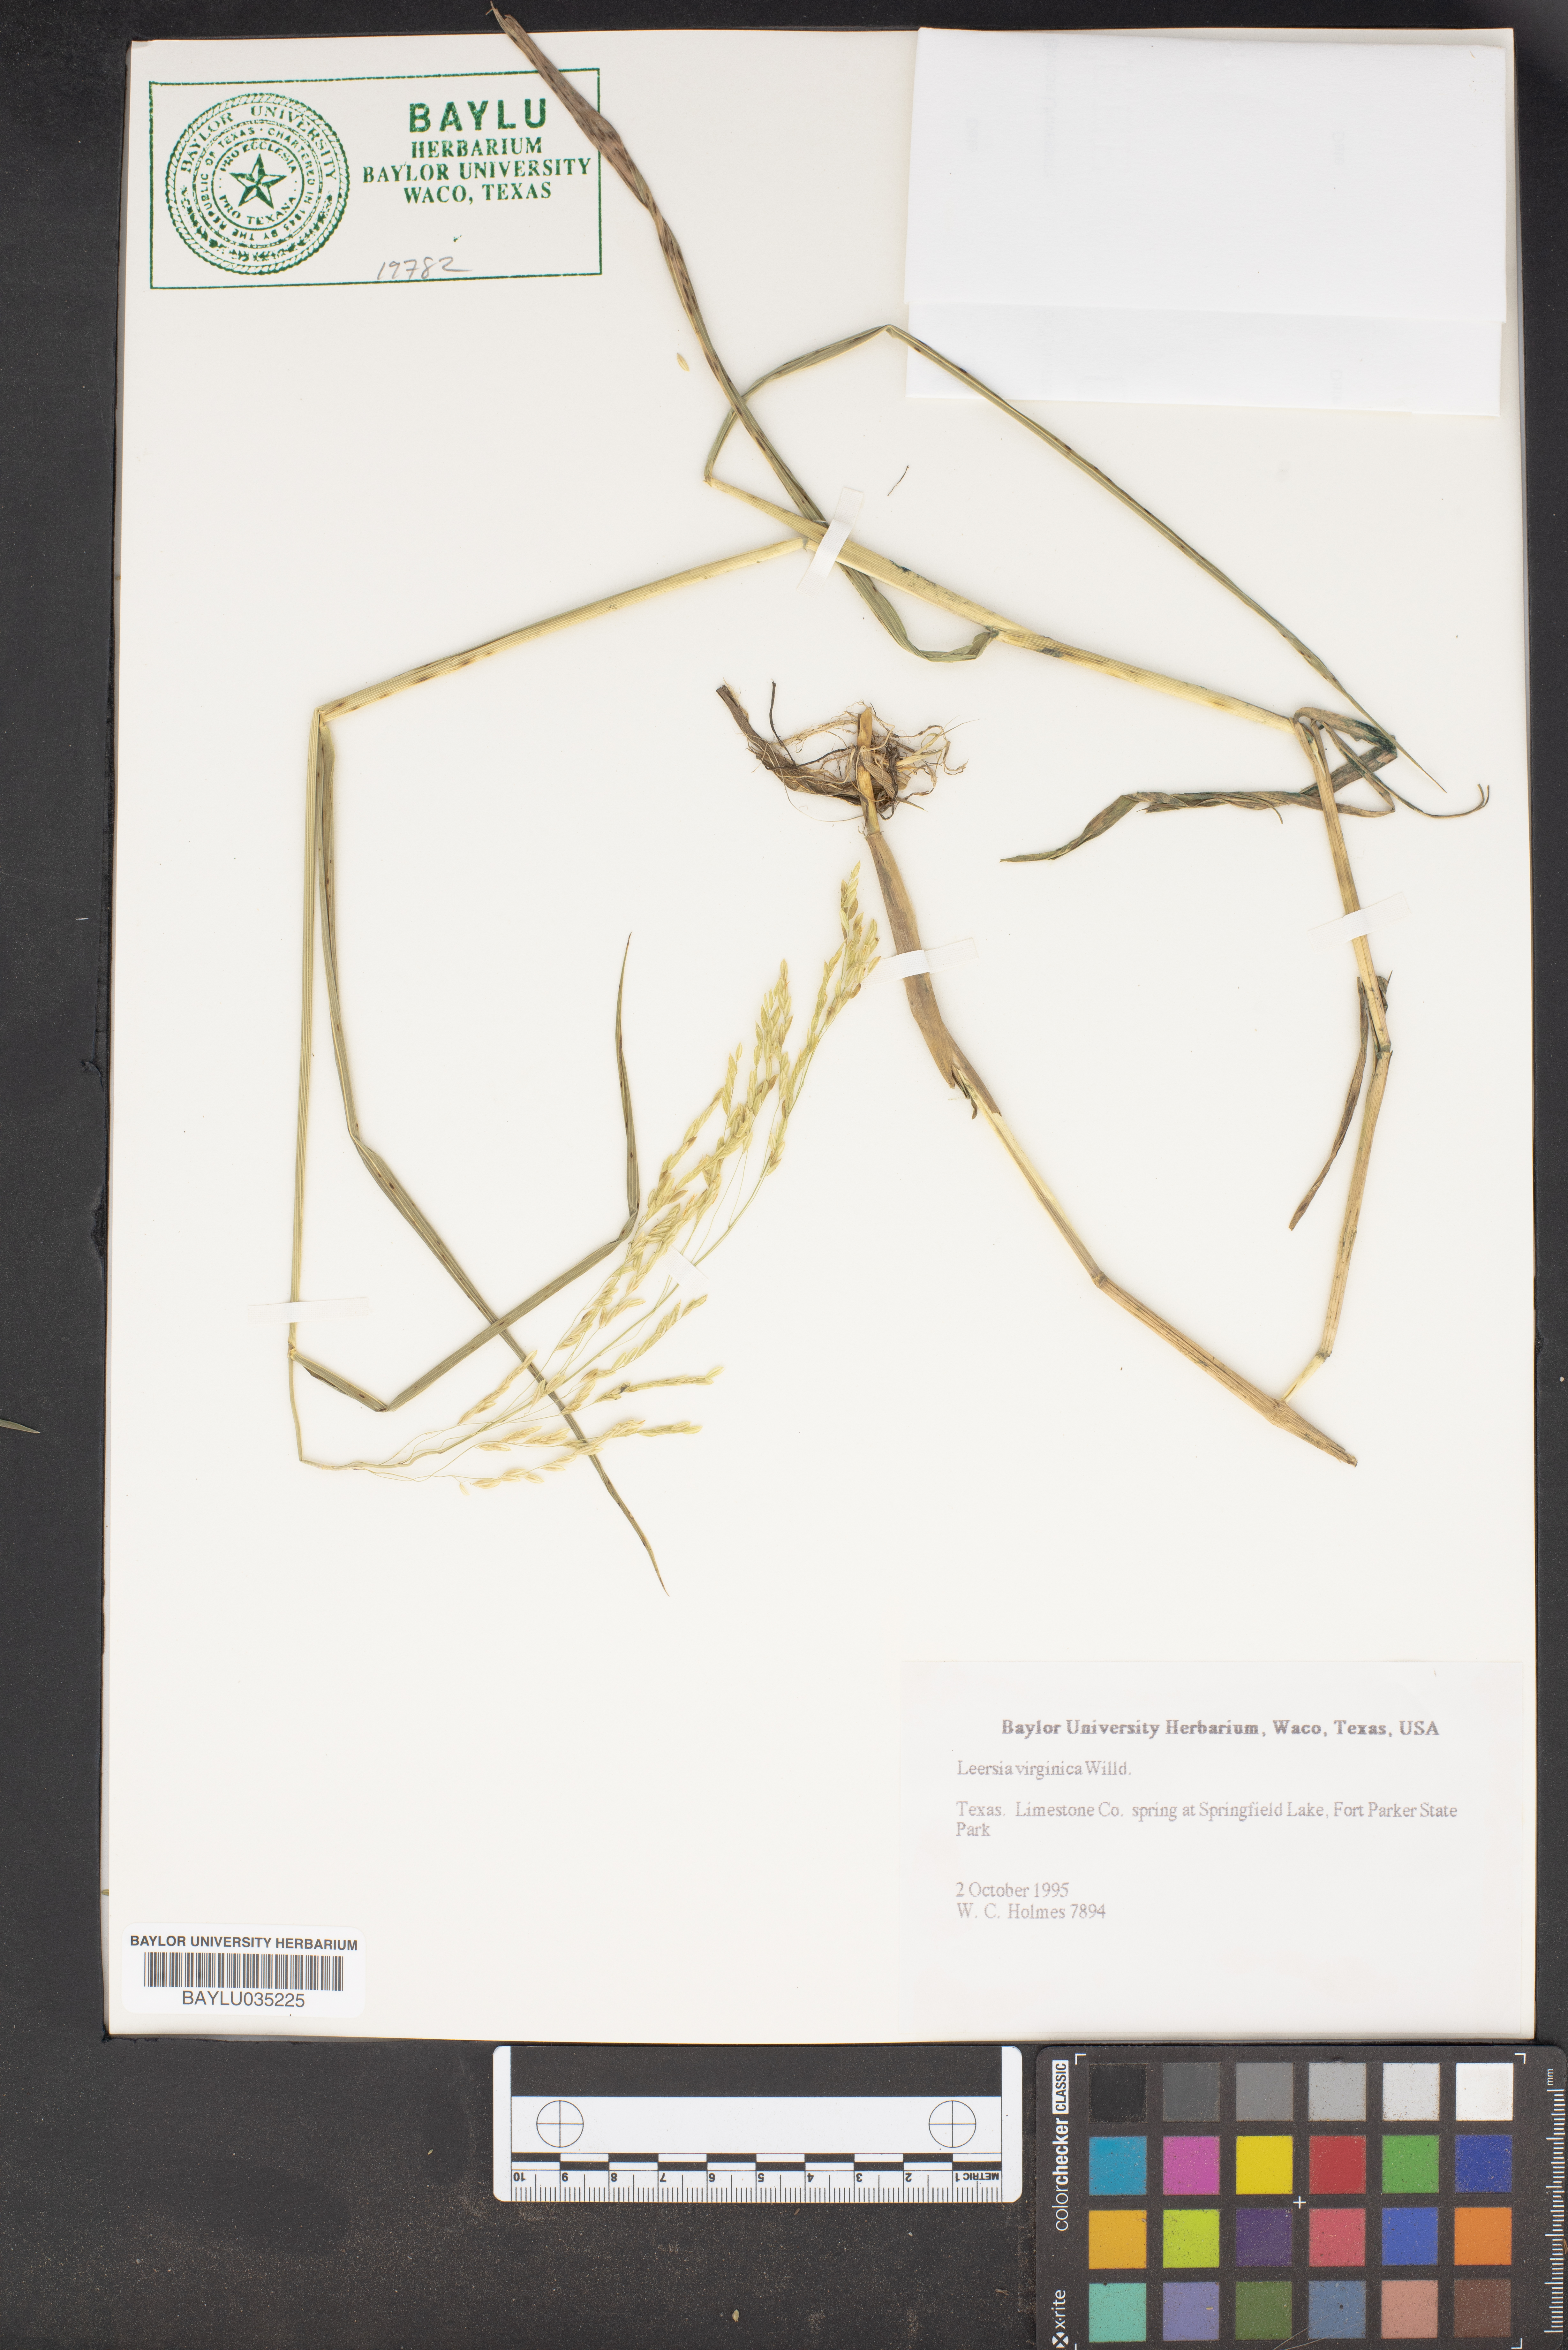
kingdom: Plantae
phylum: Tracheophyta
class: Liliopsida
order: Poales
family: Poaceae
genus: Leersia
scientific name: Leersia virginica
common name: White cutgrass
